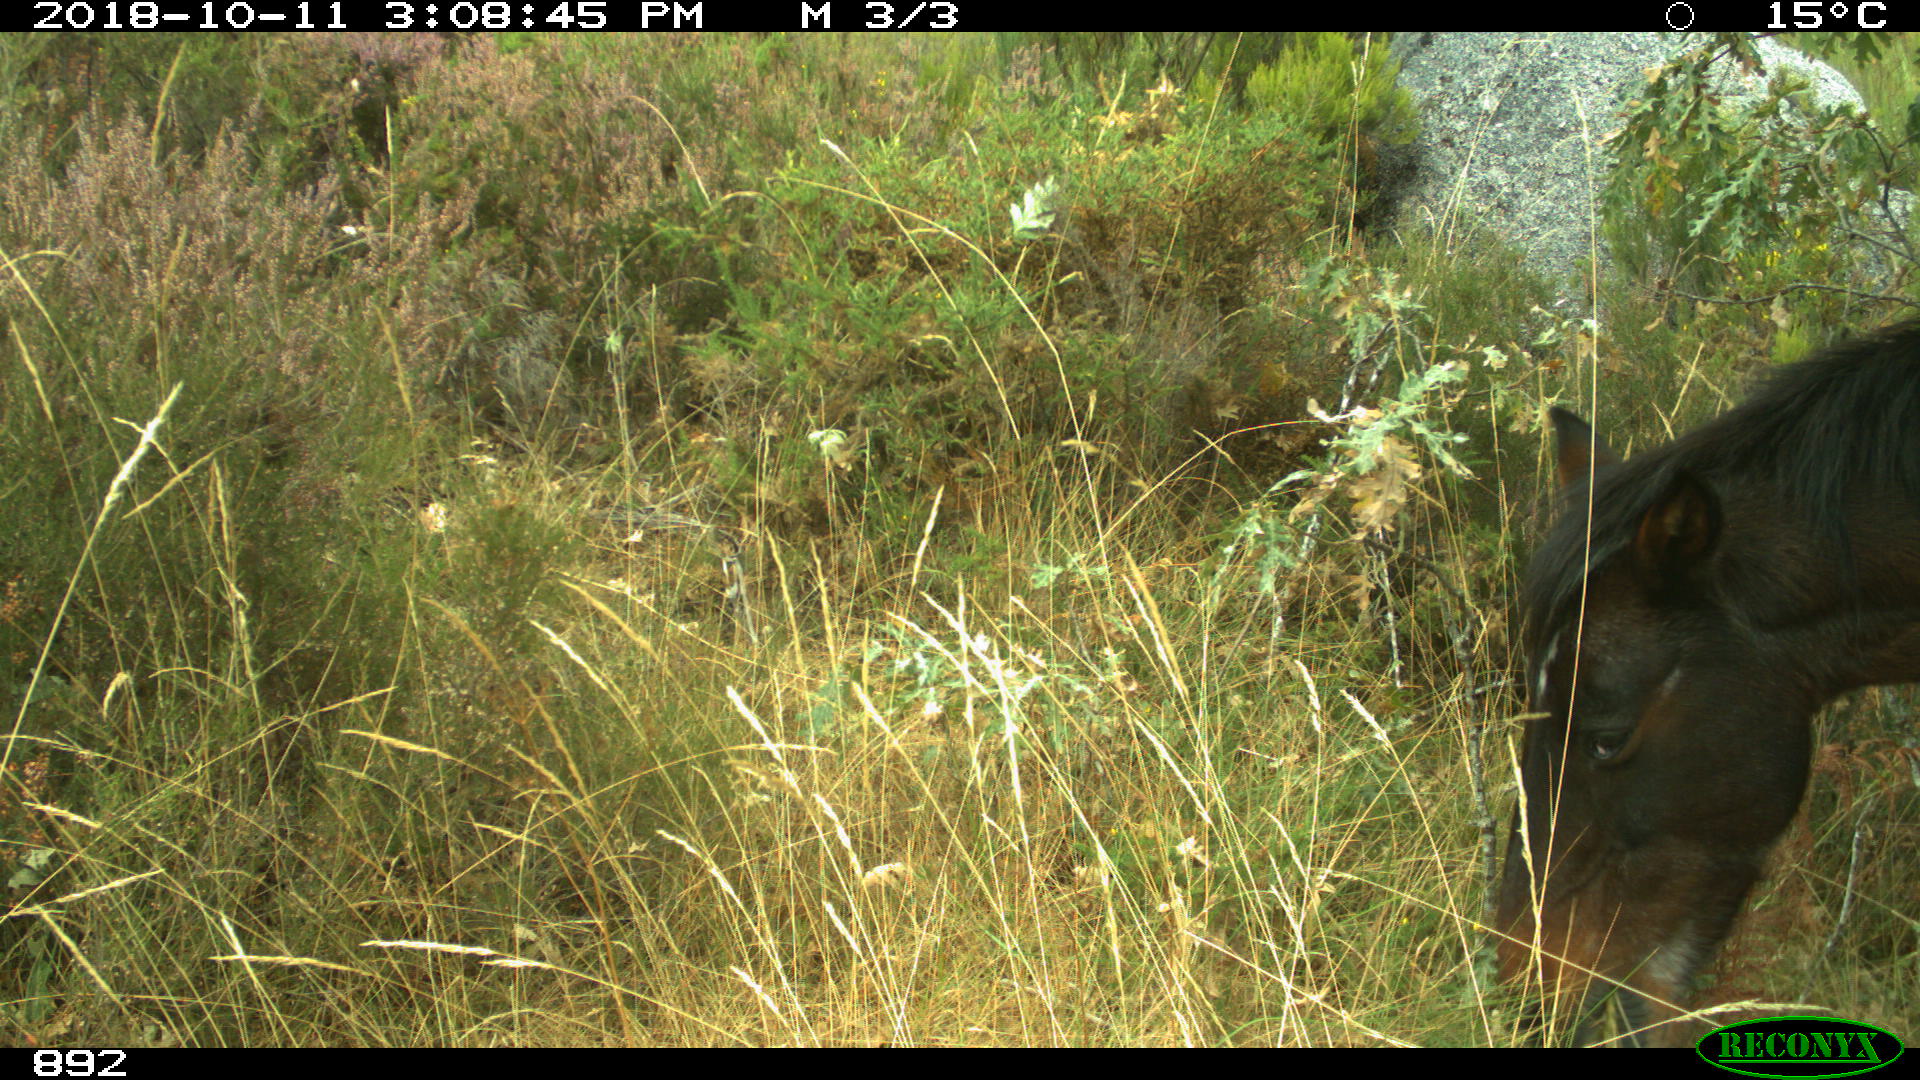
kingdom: Animalia
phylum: Chordata
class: Mammalia
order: Perissodactyla
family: Equidae
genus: Equus
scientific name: Equus caballus
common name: Horse
